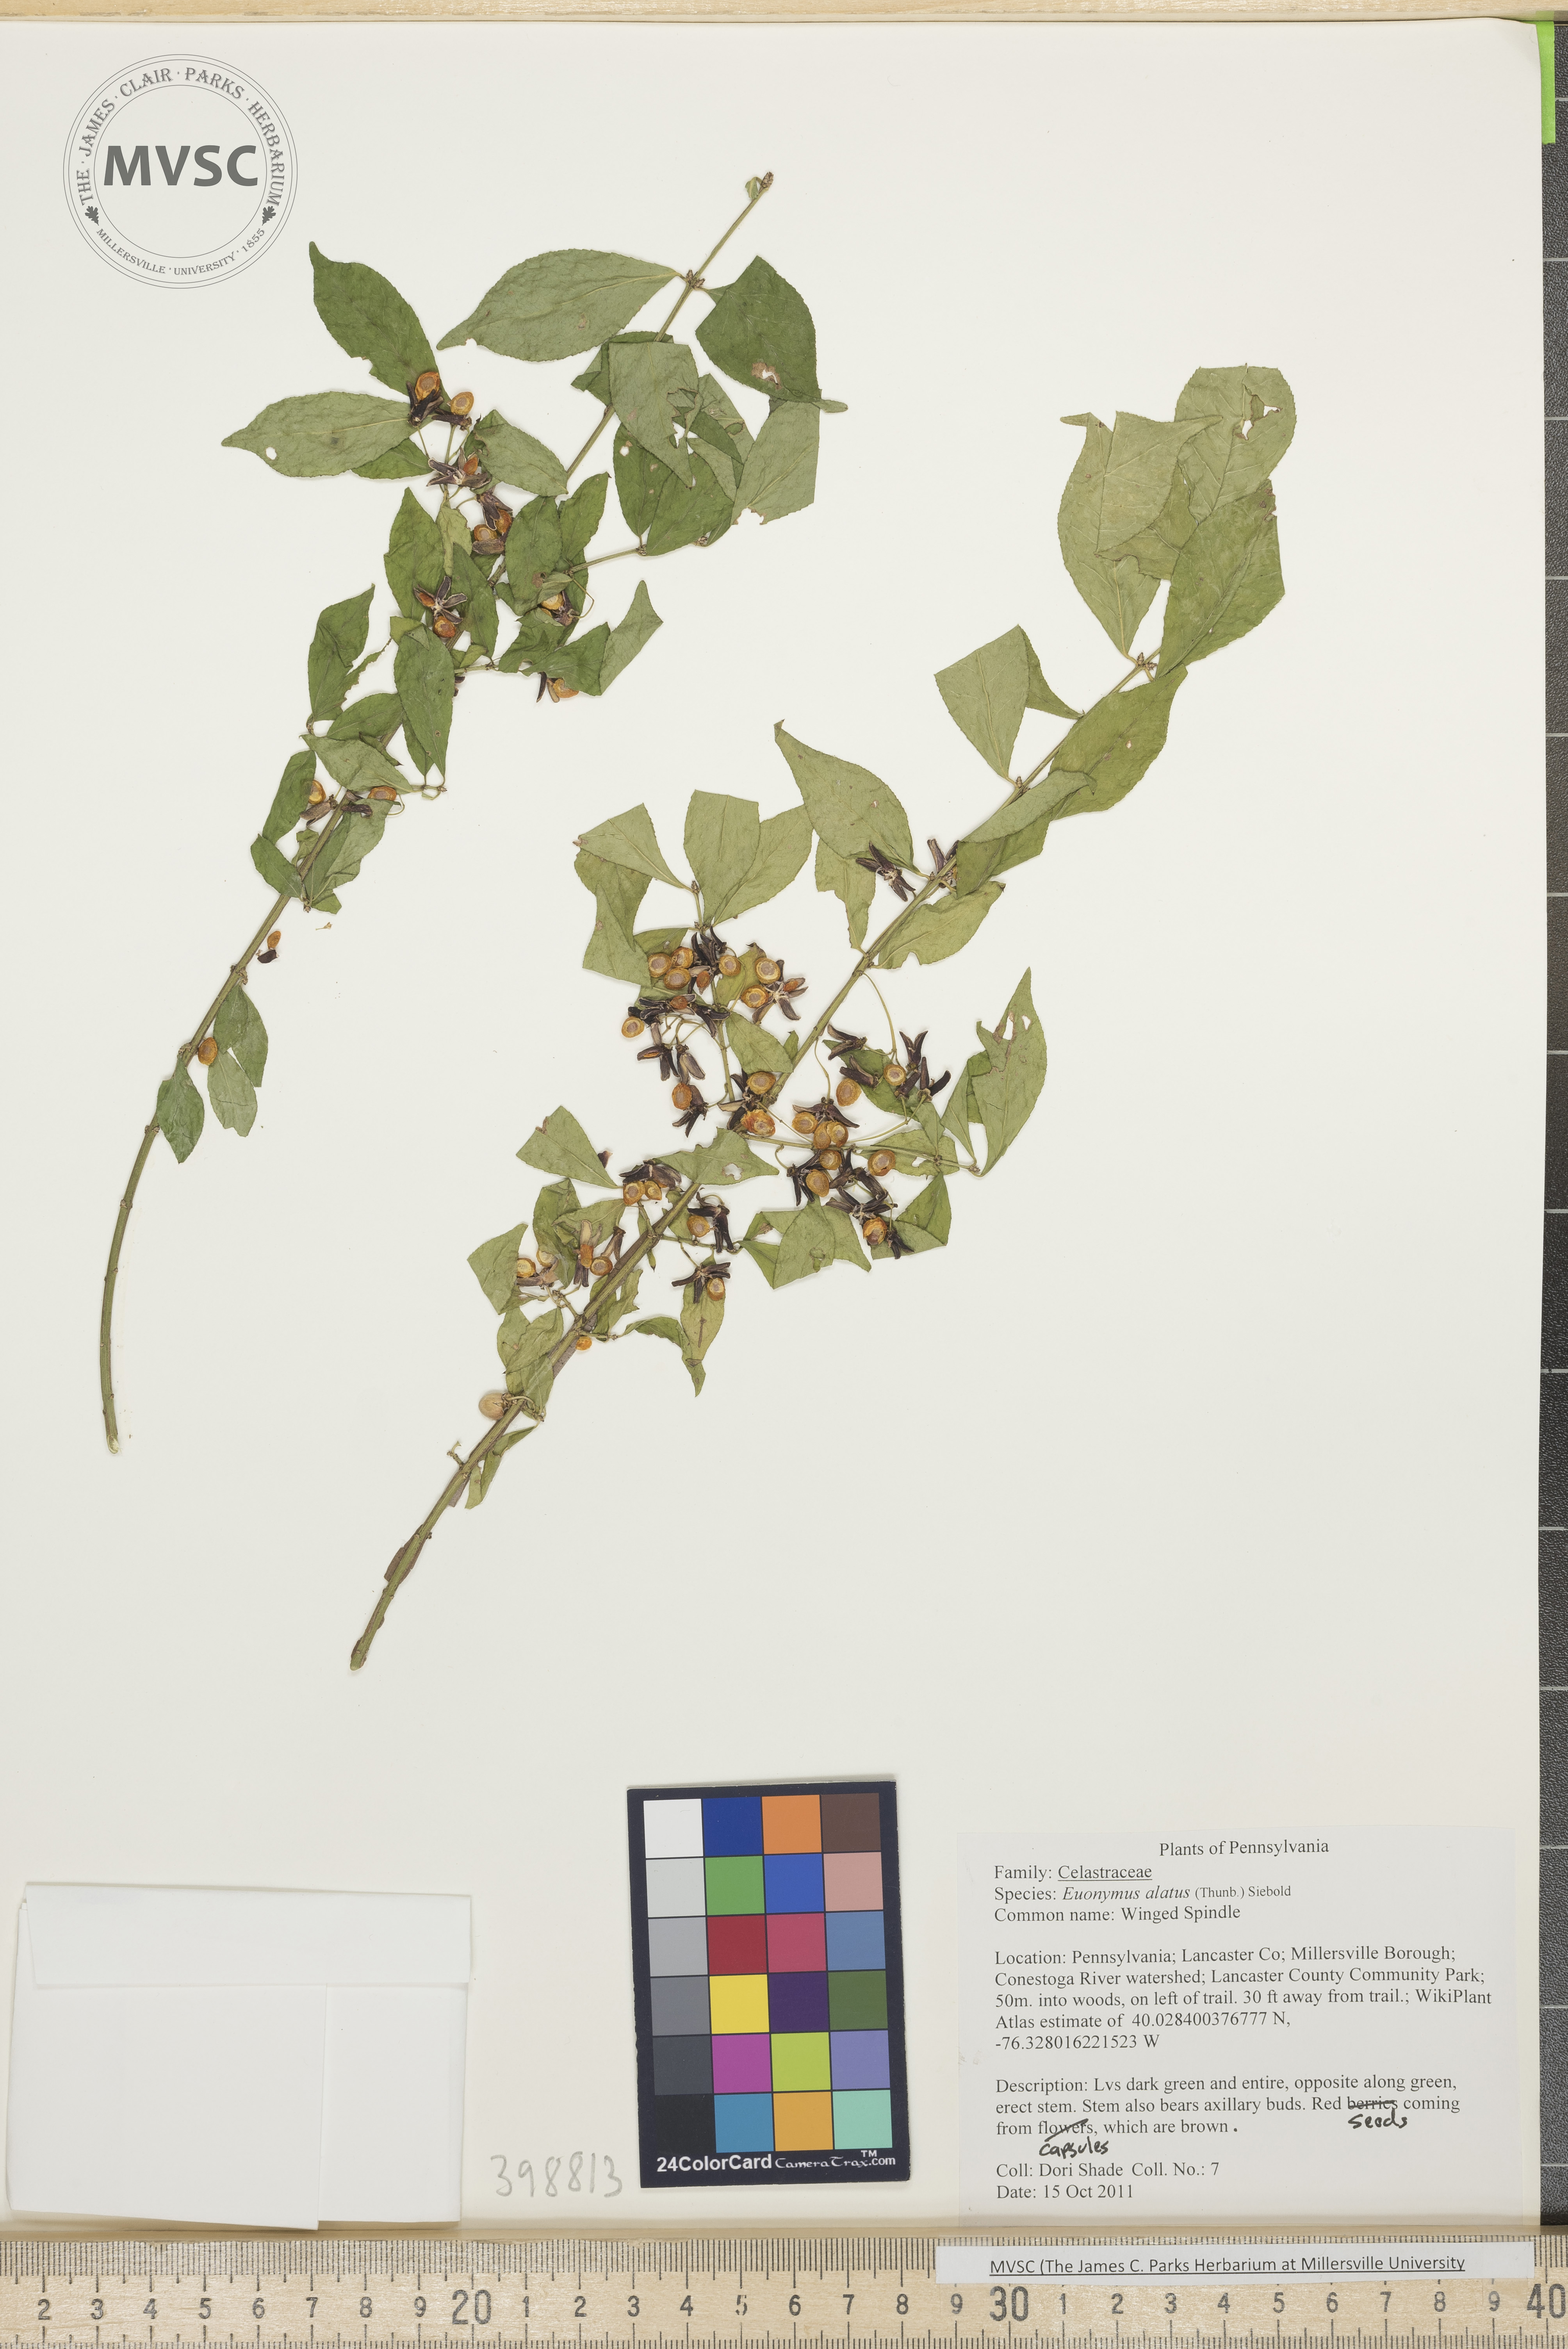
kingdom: Plantae
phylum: Tracheophyta
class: Magnoliopsida
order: Celastrales
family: Celastraceae
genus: Euonymus
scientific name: Euonymus alatus
